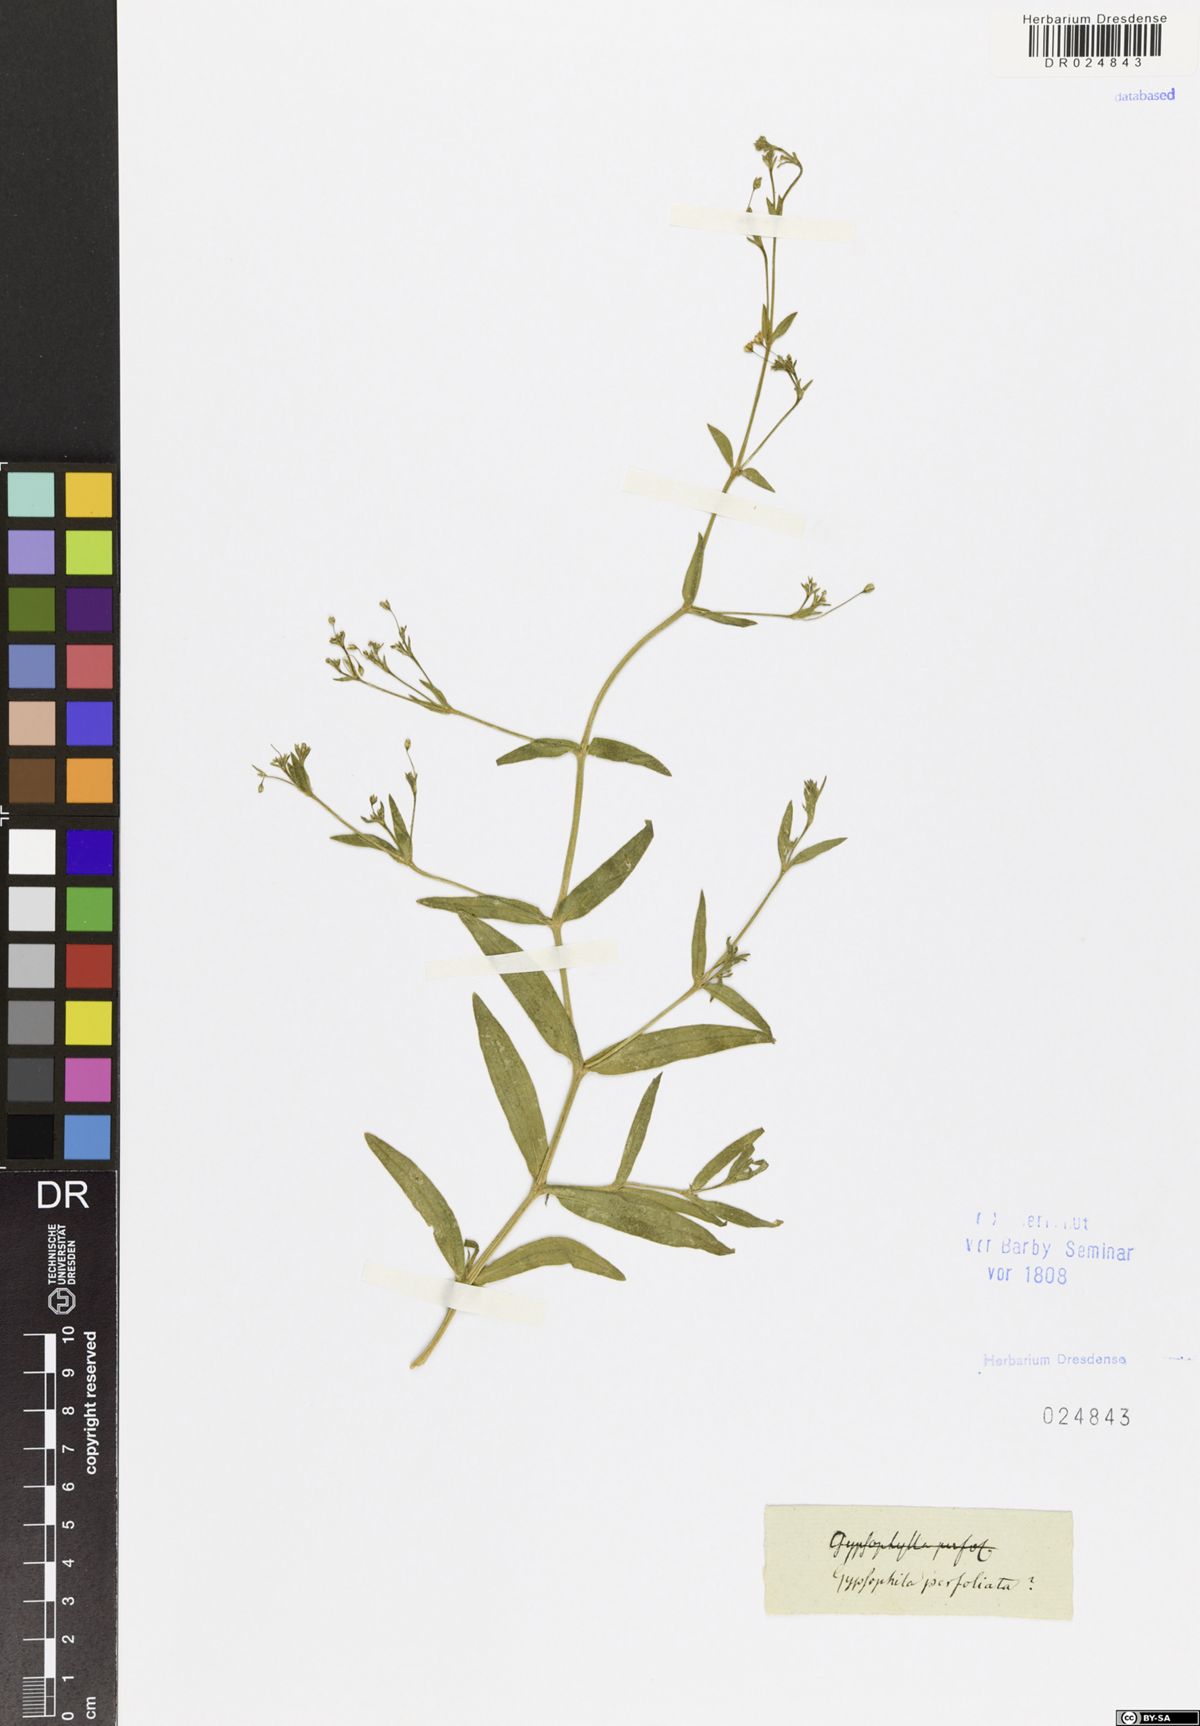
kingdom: Plantae
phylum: Tracheophyta
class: Magnoliopsida
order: Caryophyllales
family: Caryophyllaceae
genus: Gypsophila
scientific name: Gypsophila perfoliata
